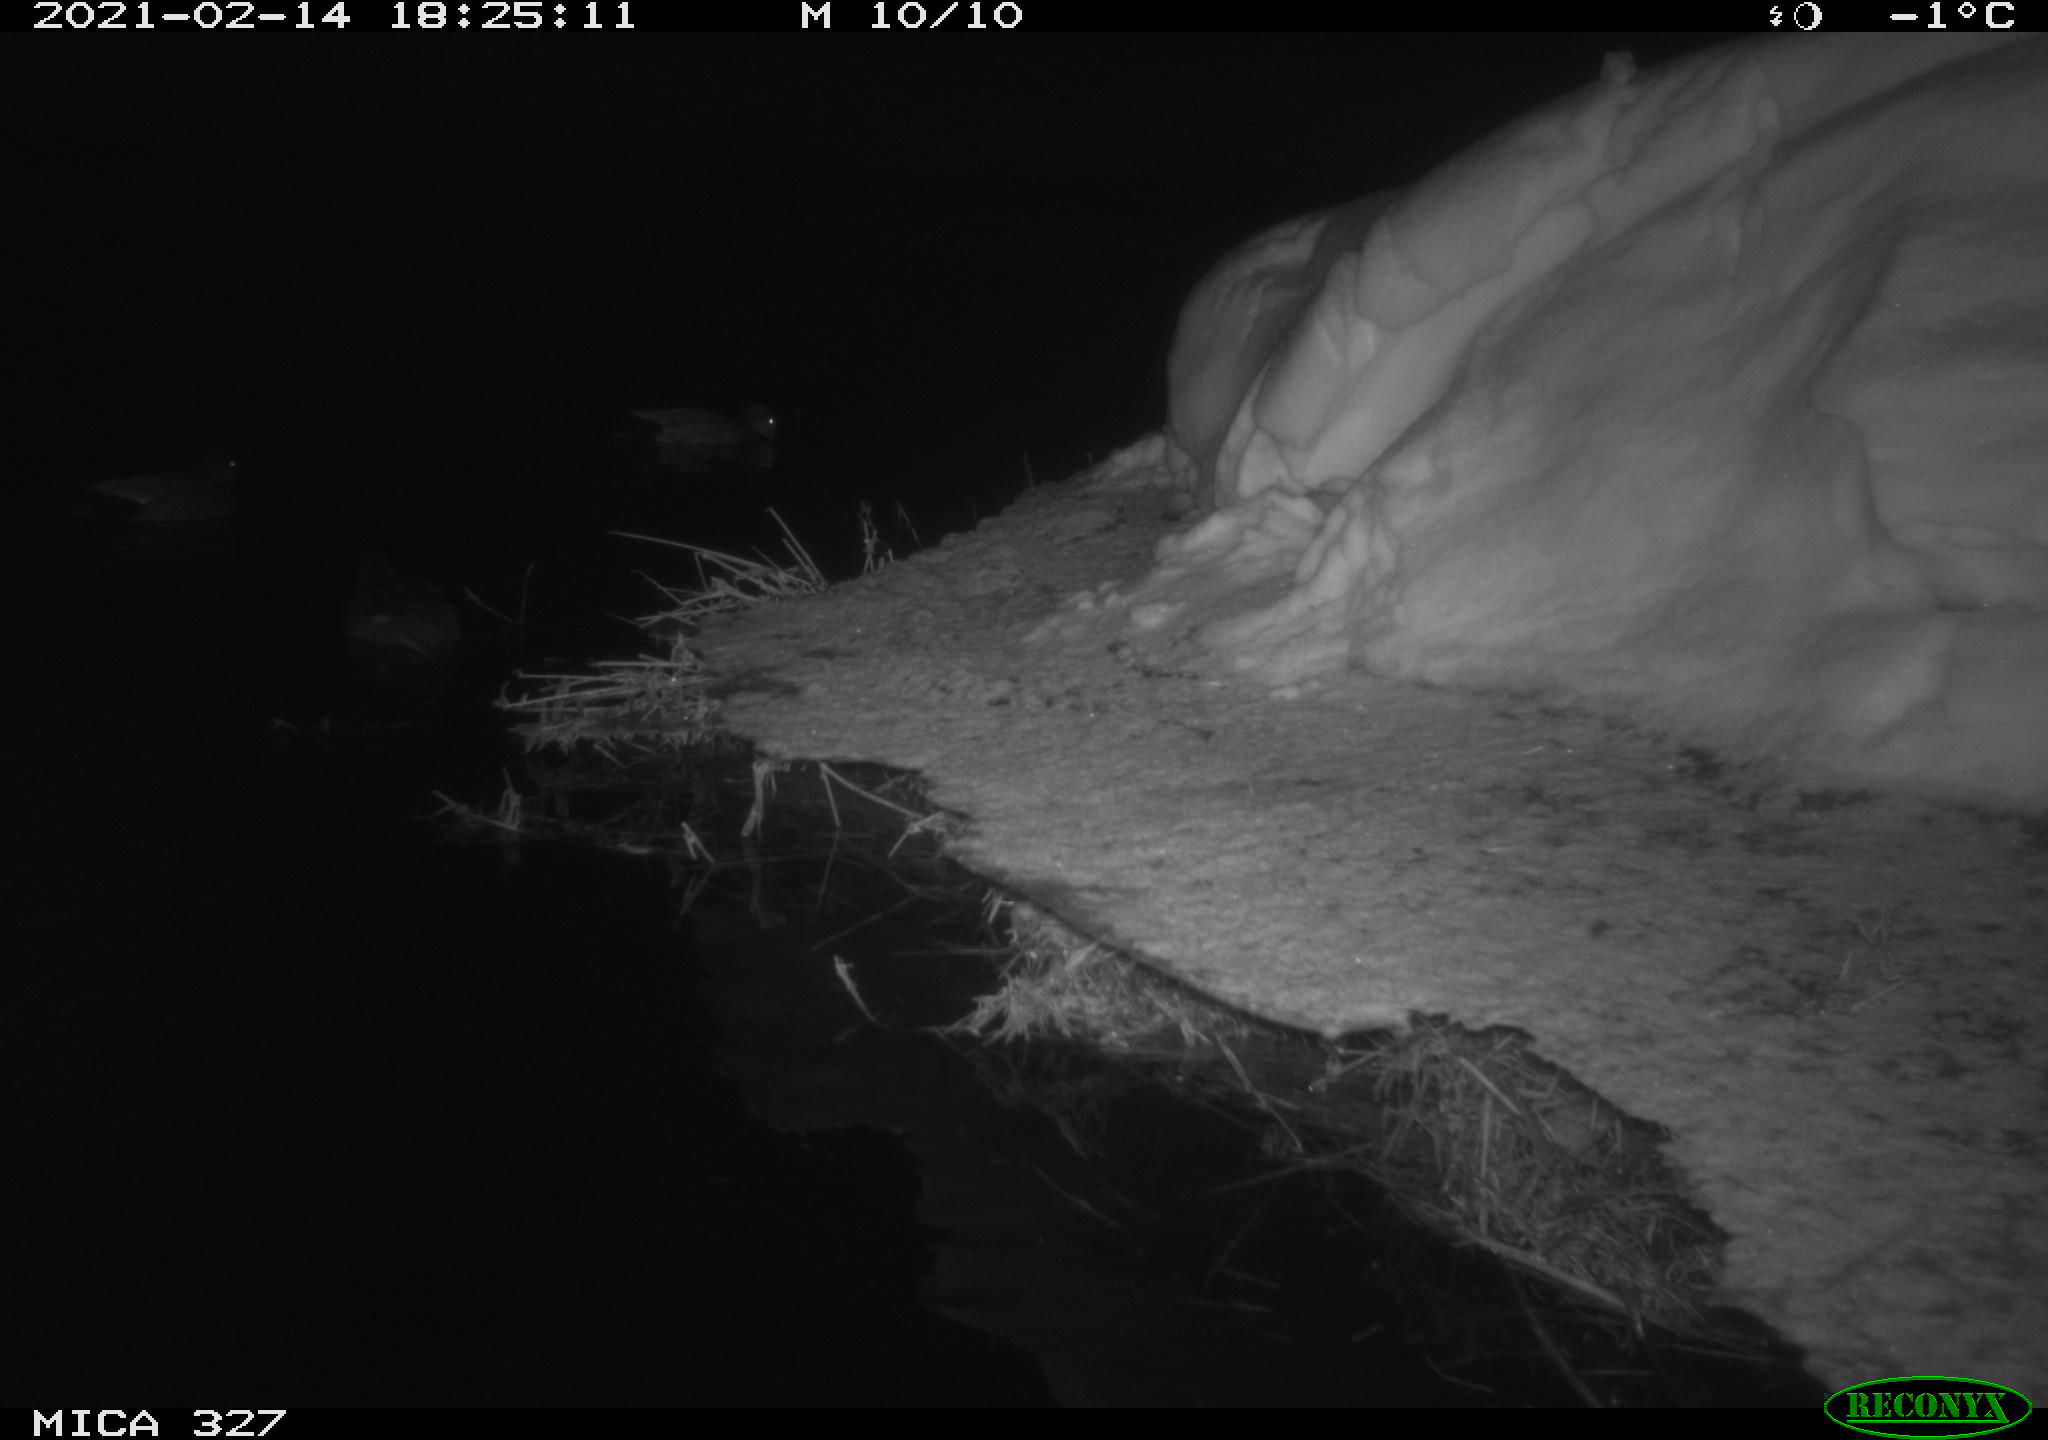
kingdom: Animalia
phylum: Chordata
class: Aves
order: Anseriformes
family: Anatidae
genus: Anas
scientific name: Anas
